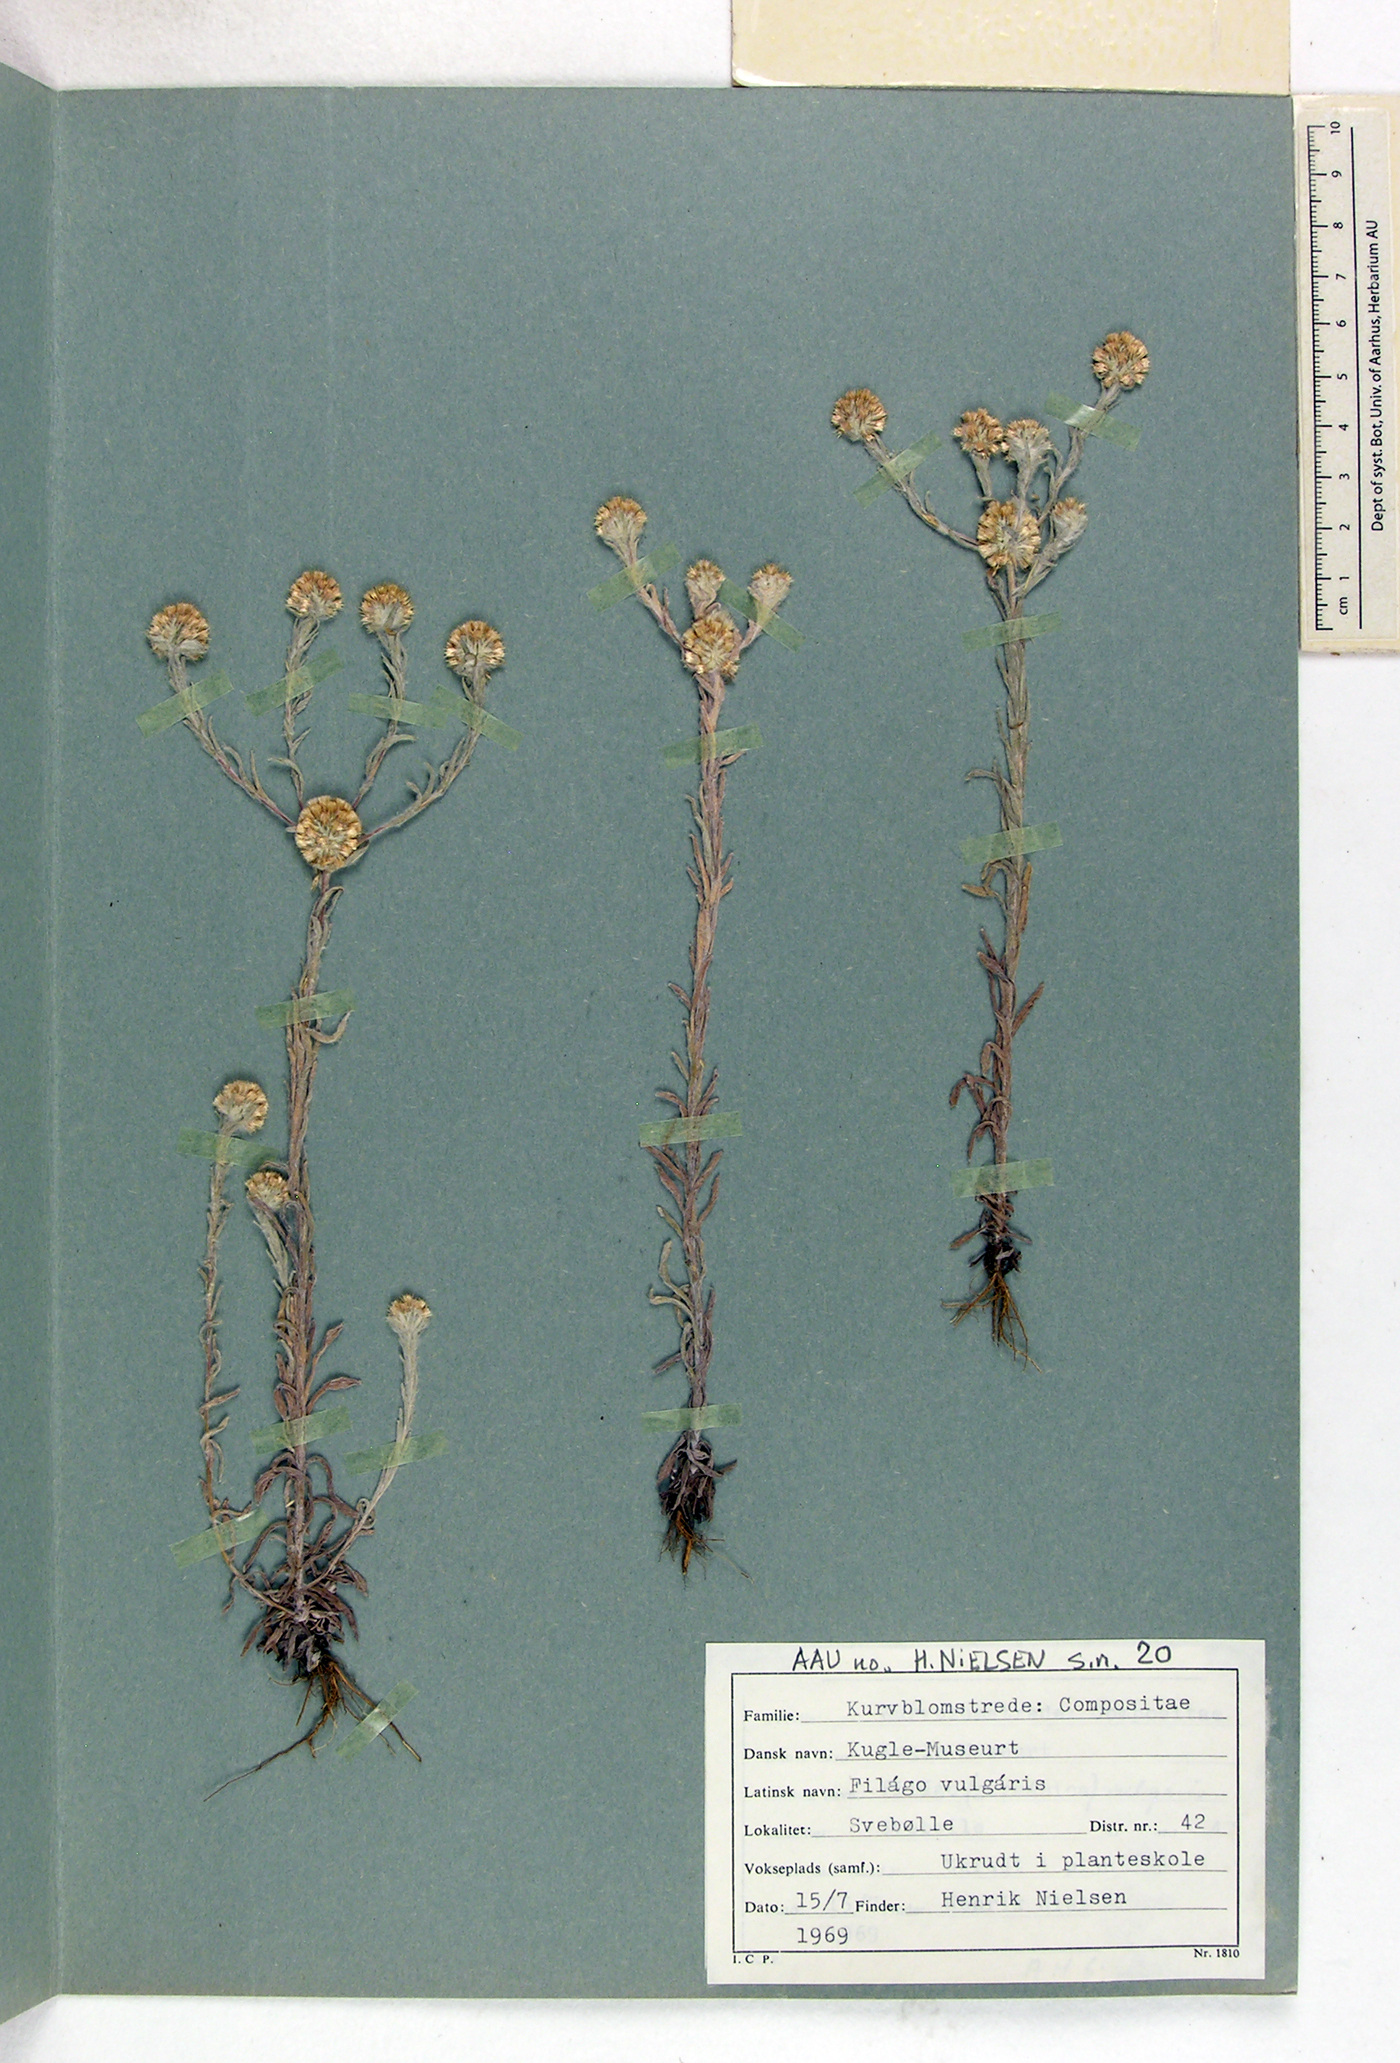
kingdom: Plantae
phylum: Tracheophyta
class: Magnoliopsida
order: Asterales
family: Asteraceae
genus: Filago
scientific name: Filago germanica
